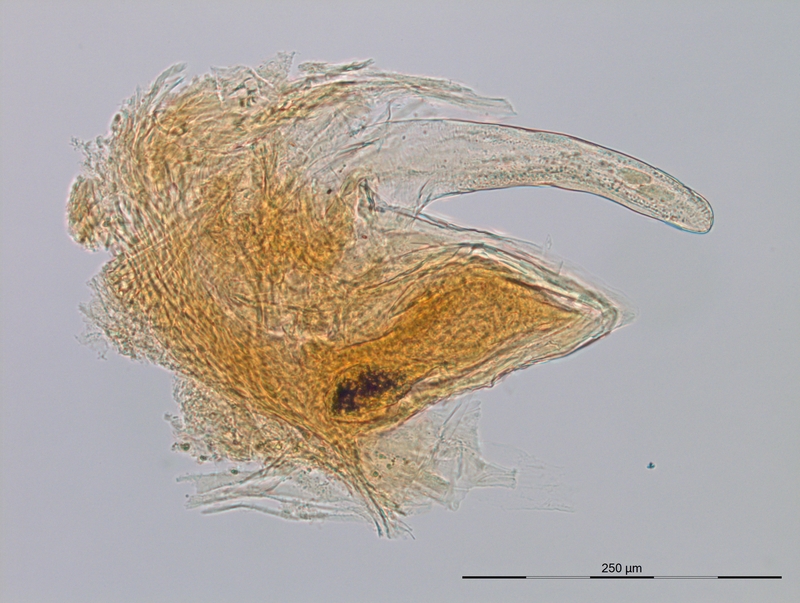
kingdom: Animalia
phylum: Arthropoda
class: Diplopoda
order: Julida
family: Blaniulidae
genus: Alpiobates
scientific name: Alpiobates peyerimhoffi
